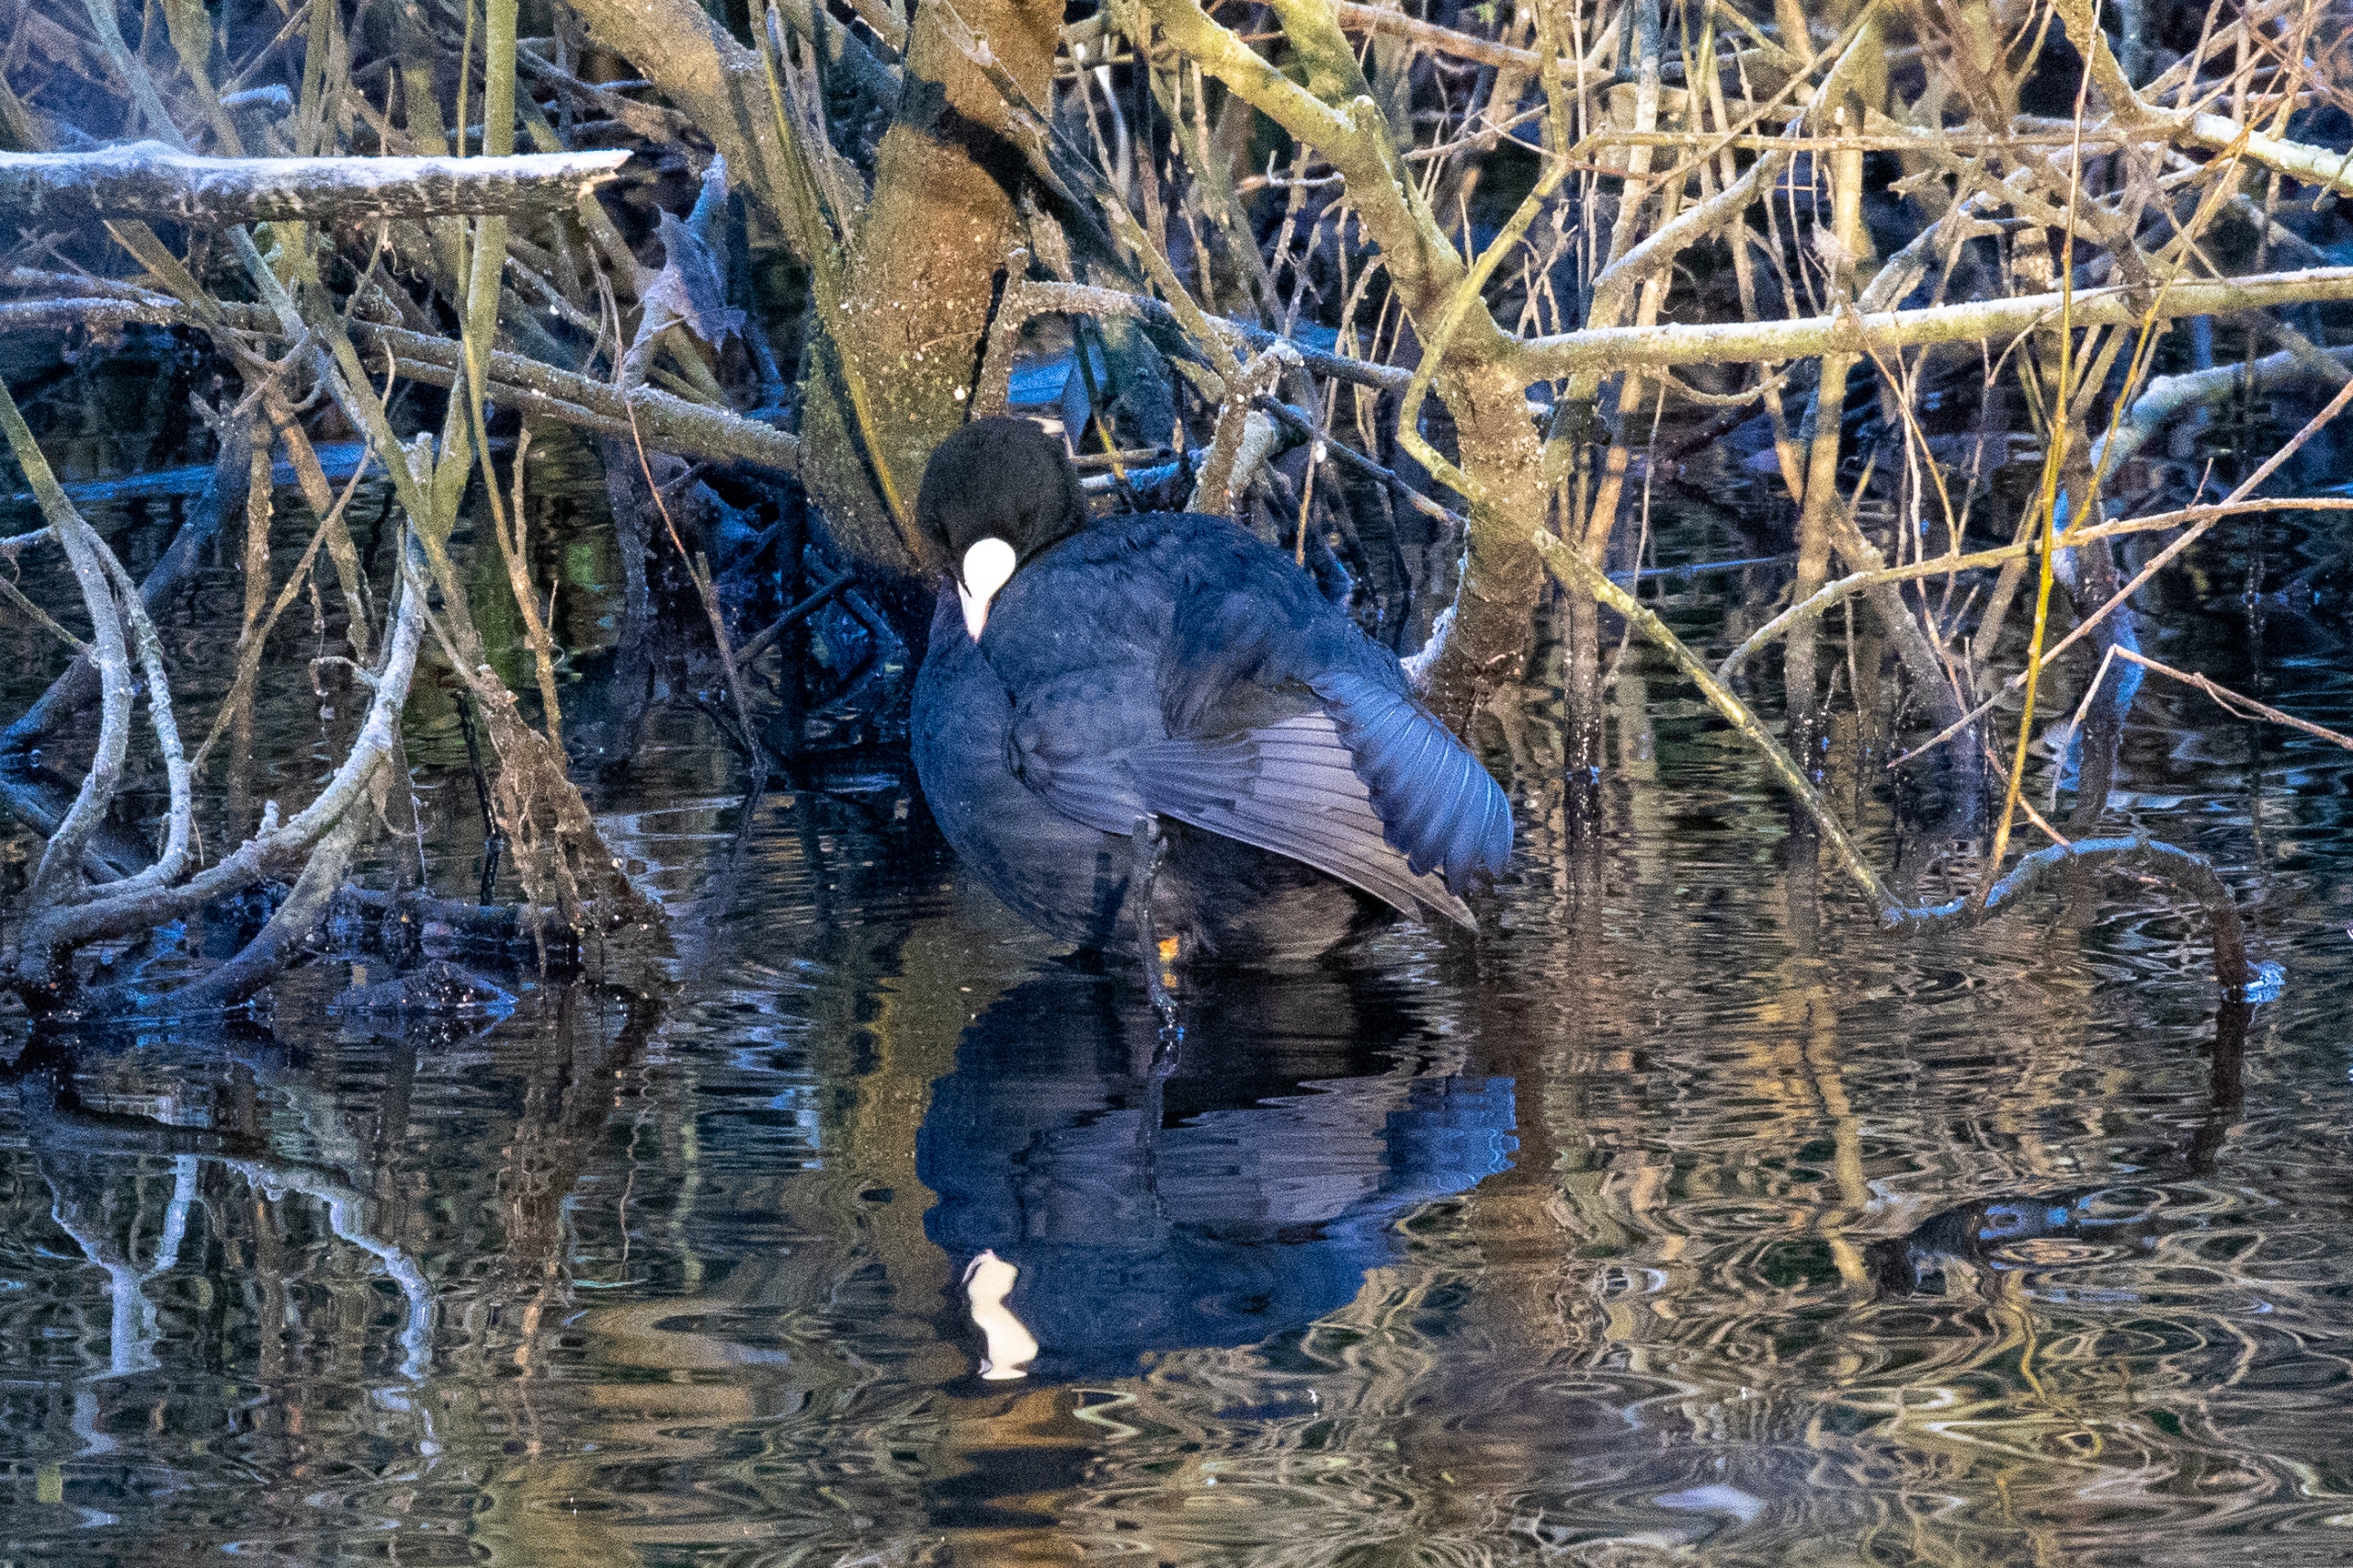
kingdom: Animalia
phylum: Chordata
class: Aves
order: Gruiformes
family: Rallidae
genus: Fulica
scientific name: Fulica atra
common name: Blishøne
